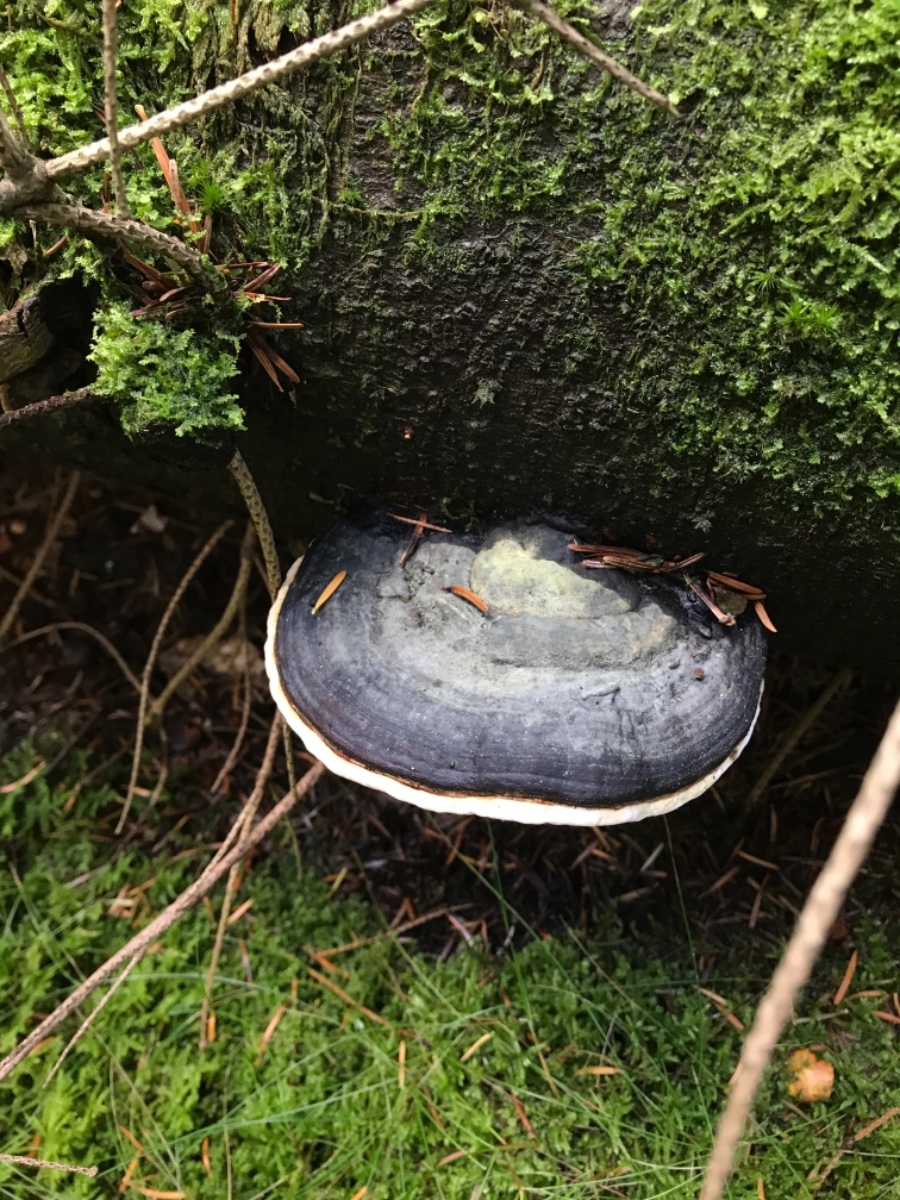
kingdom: Fungi
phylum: Basidiomycota
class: Agaricomycetes
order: Polyporales
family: Fomitopsidaceae
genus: Fomitopsis
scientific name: Fomitopsis pinicola
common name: randbæltet hovporesvamp
